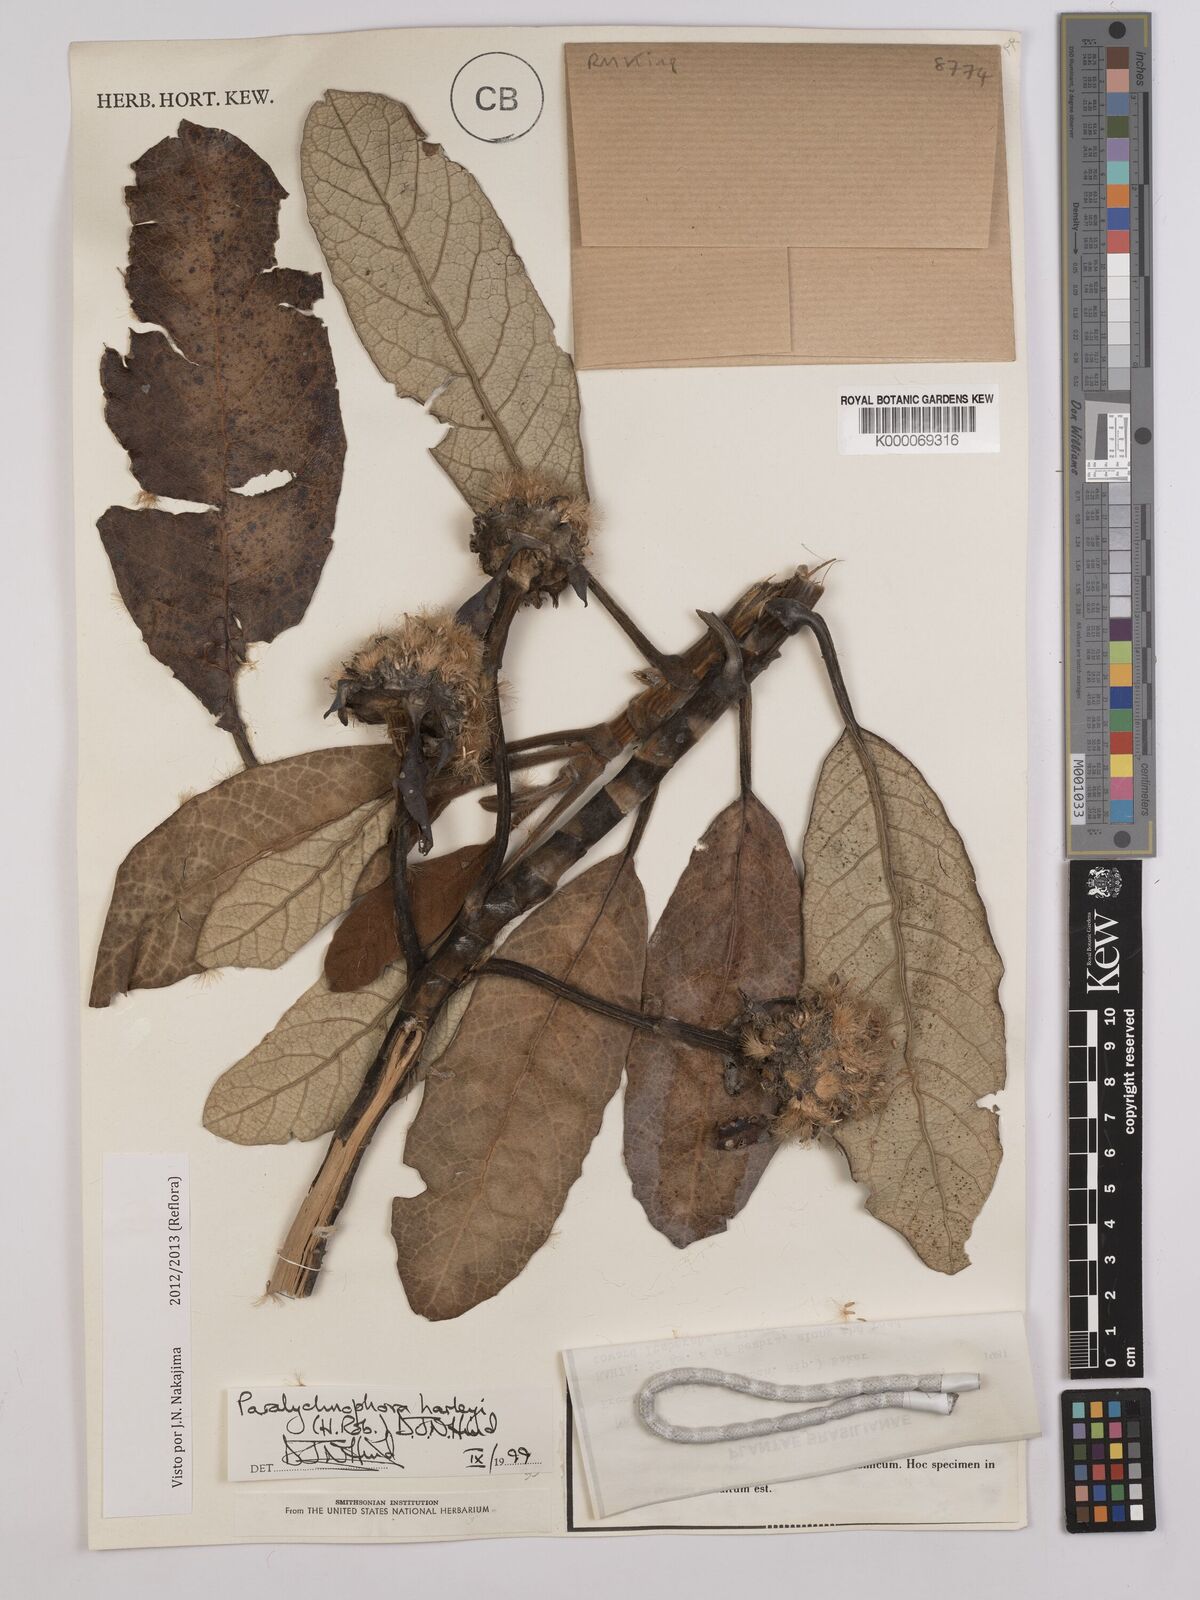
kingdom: Plantae
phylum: Tracheophyta
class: Magnoliopsida
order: Asterales
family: Asteraceae
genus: Paralychnophora
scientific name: Paralychnophora harleyi
